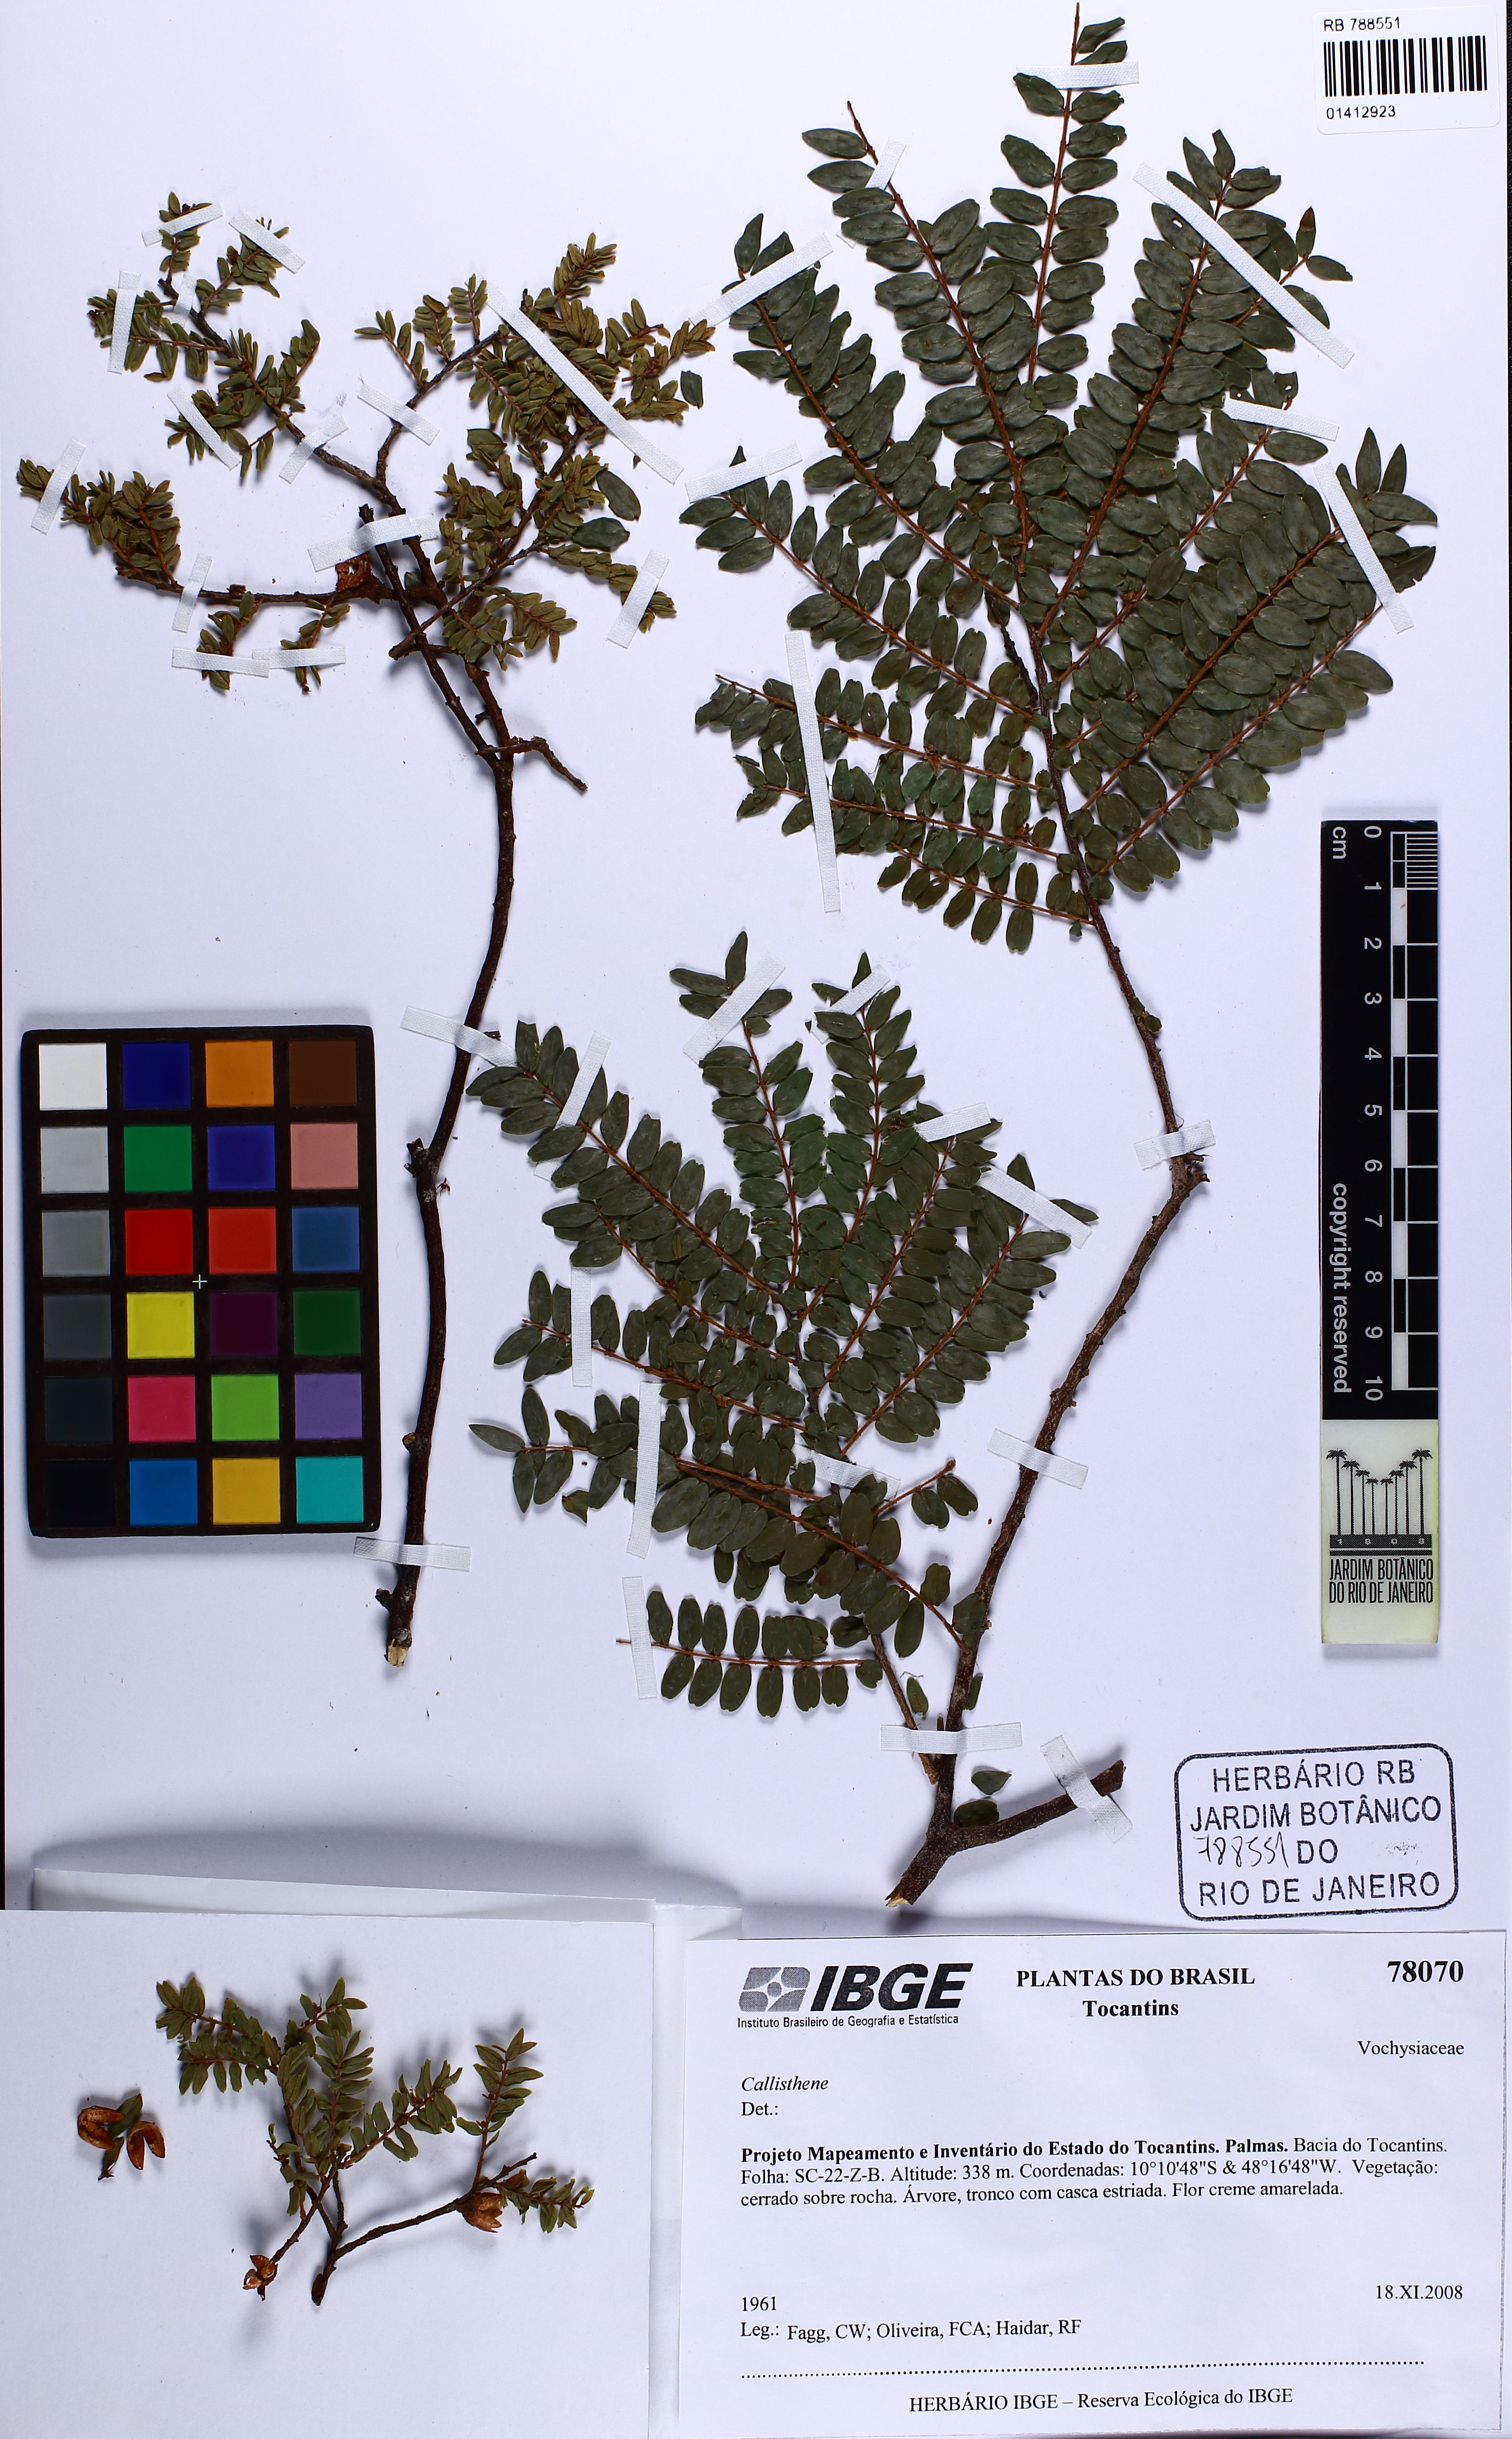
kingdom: Plantae
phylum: Tracheophyta
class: Magnoliopsida
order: Myrtales
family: Vochysiaceae
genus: Callisthene
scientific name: Callisthene
